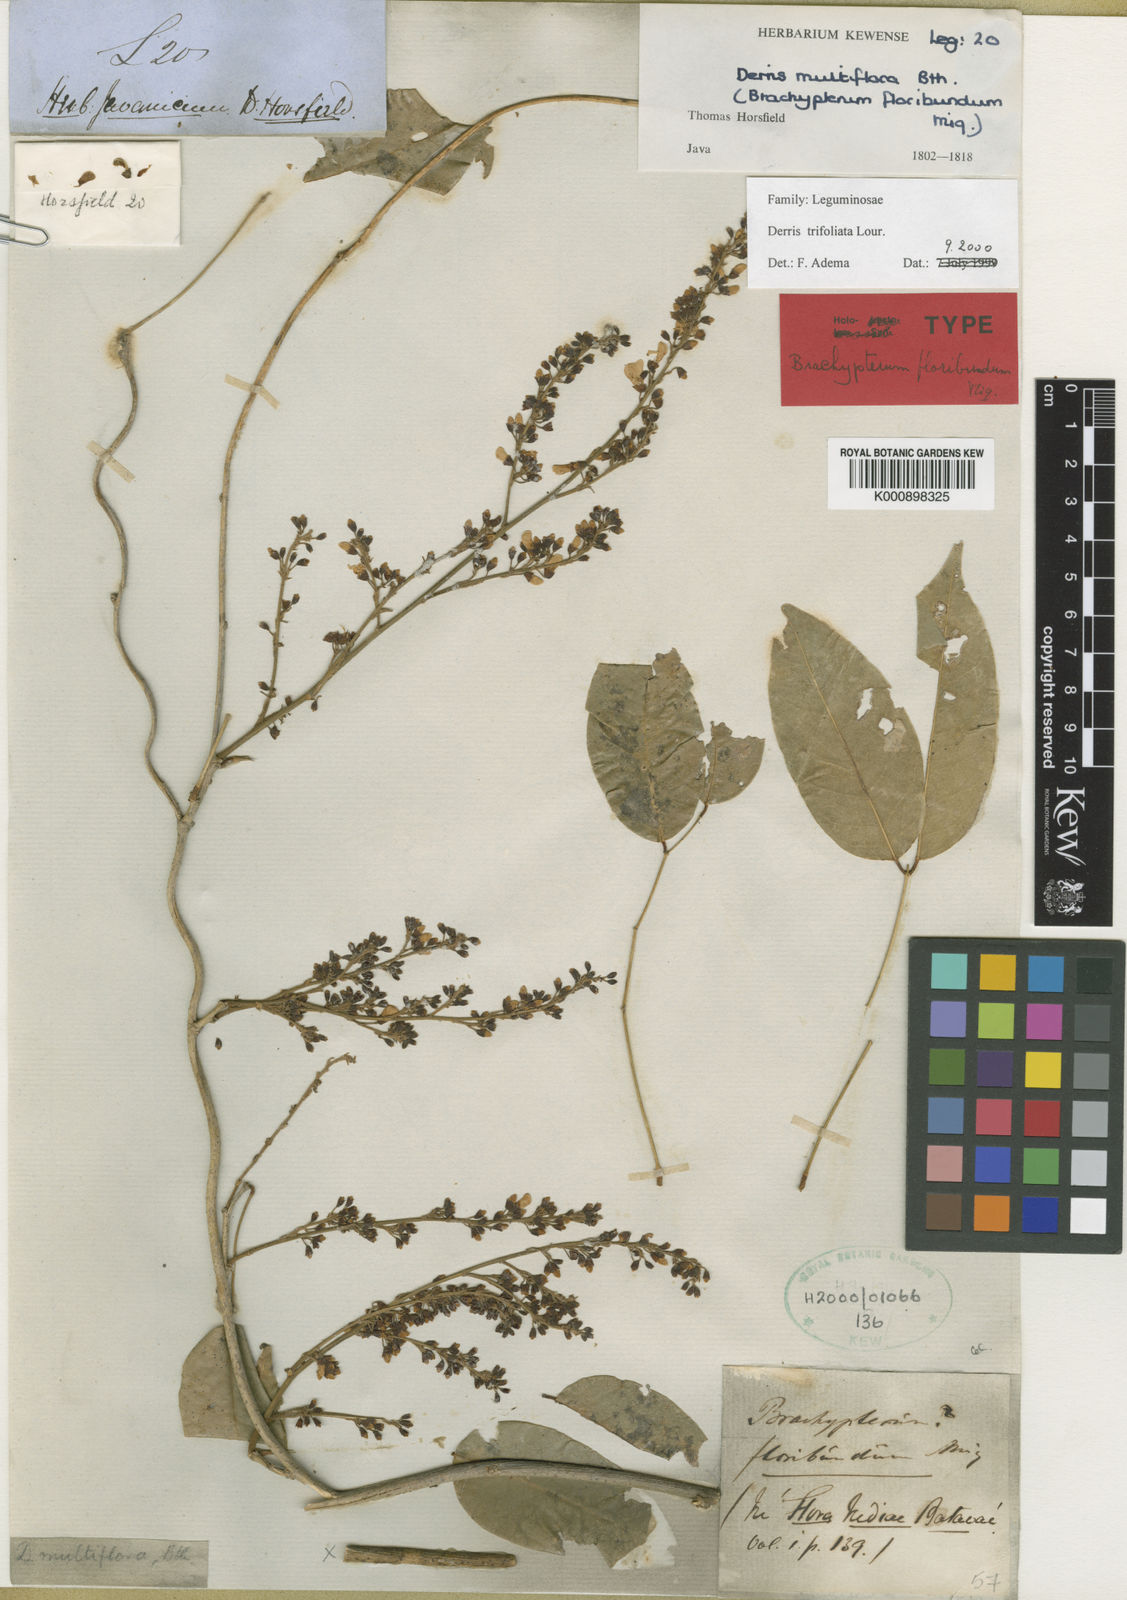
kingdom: Plantae
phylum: Tracheophyta
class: Magnoliopsida
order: Fabales
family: Fabaceae
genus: Derris
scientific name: Derris trifoliata
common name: Three-leaf derris
